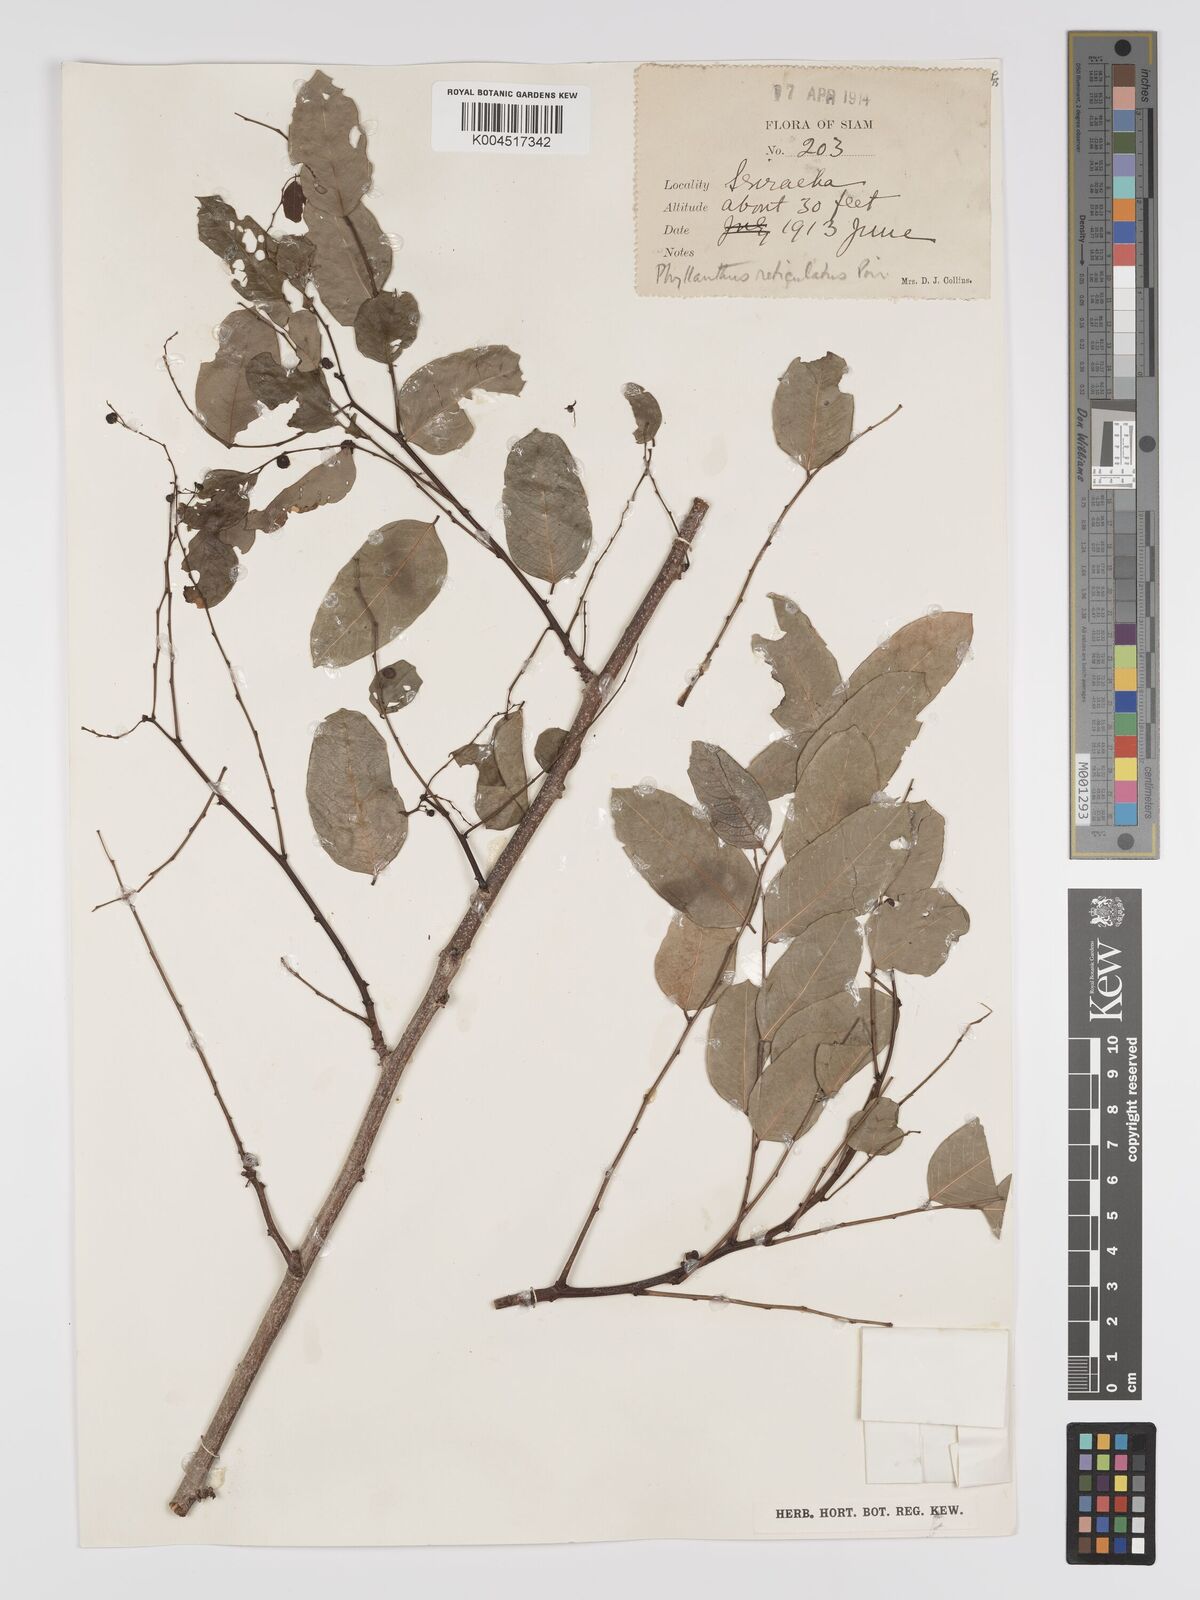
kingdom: Plantae
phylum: Tracheophyta
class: Magnoliopsida
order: Malpighiales
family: Phyllanthaceae
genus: Phyllanthus
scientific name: Phyllanthus reticulatus
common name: Potato bush
